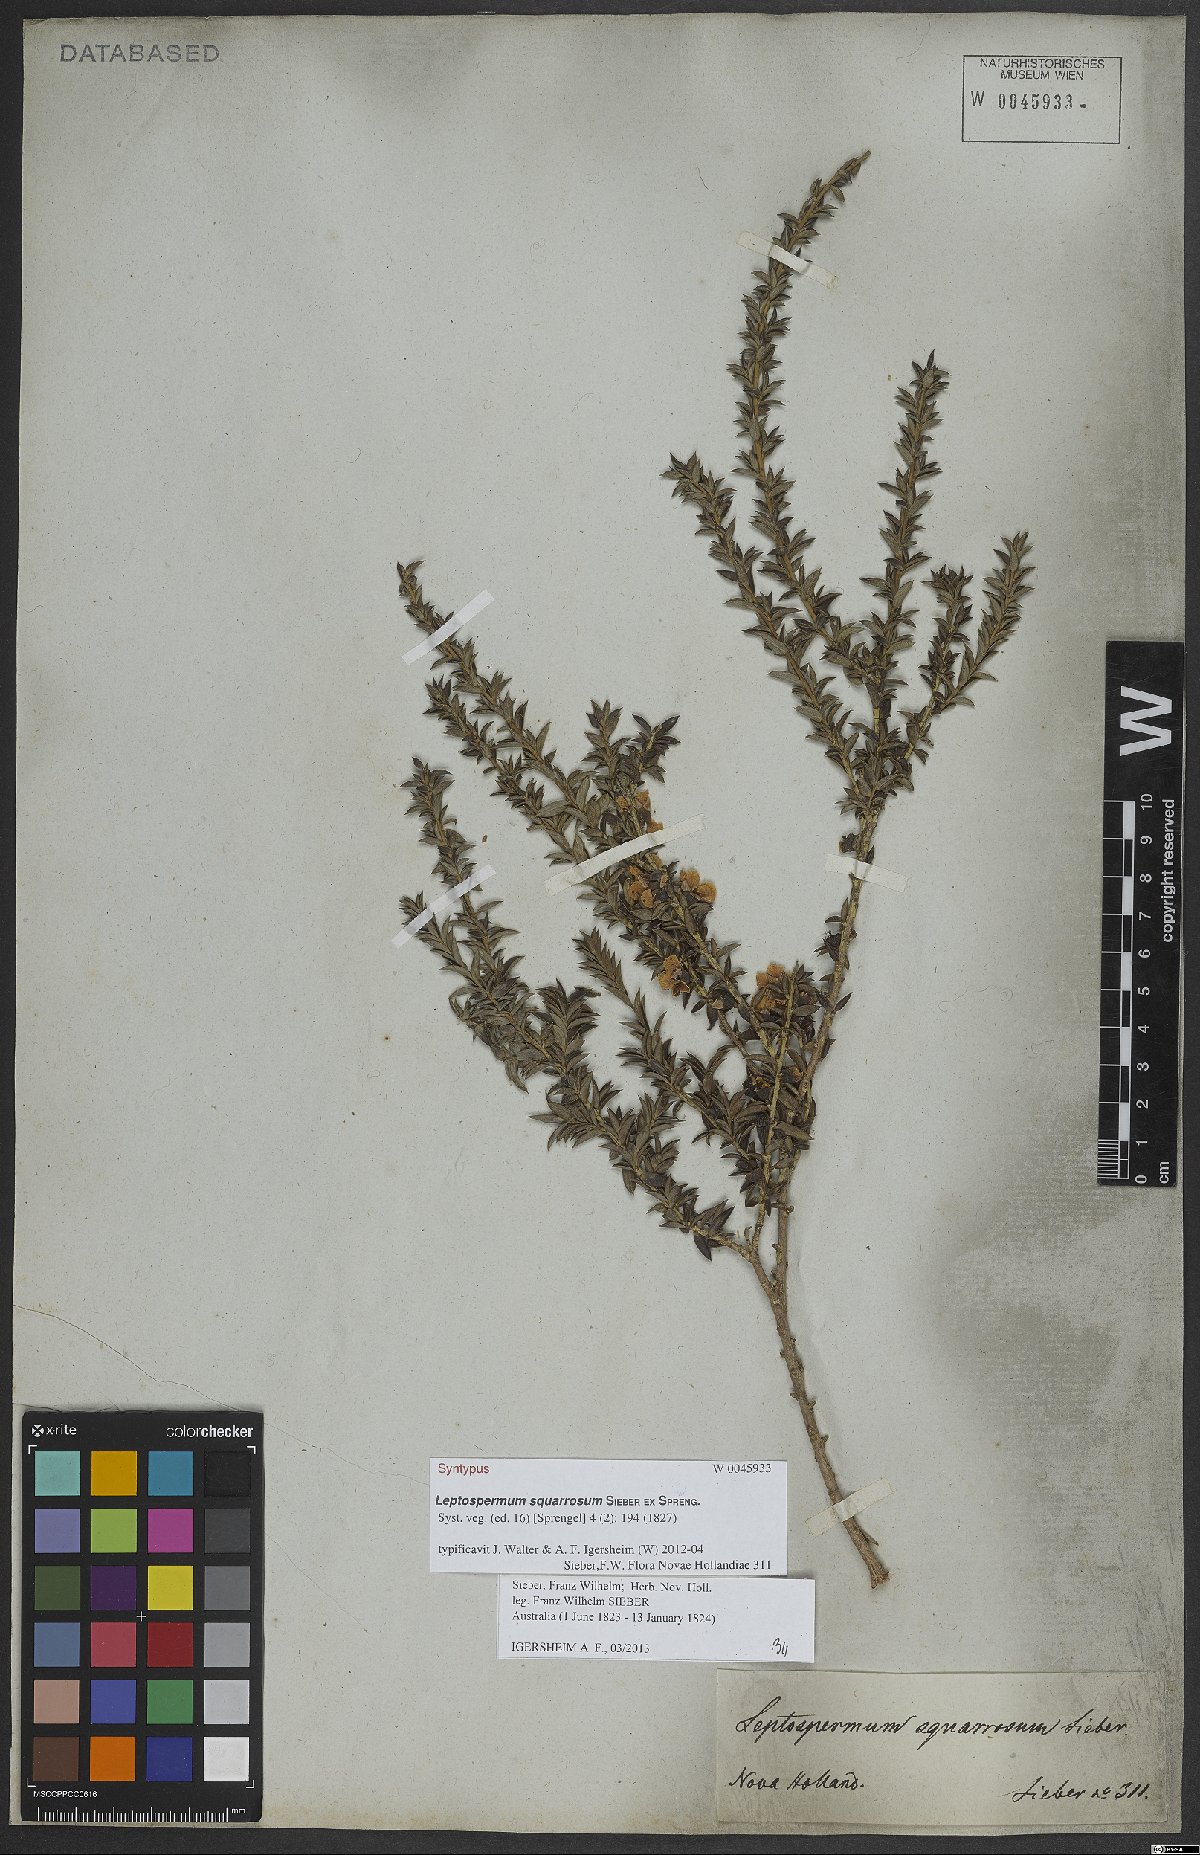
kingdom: Plantae
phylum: Tracheophyta
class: Magnoliopsida
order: Myrtales
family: Myrtaceae
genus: Leptospermum
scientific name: Leptospermum squarrosum
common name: Peach-blossom teatree
